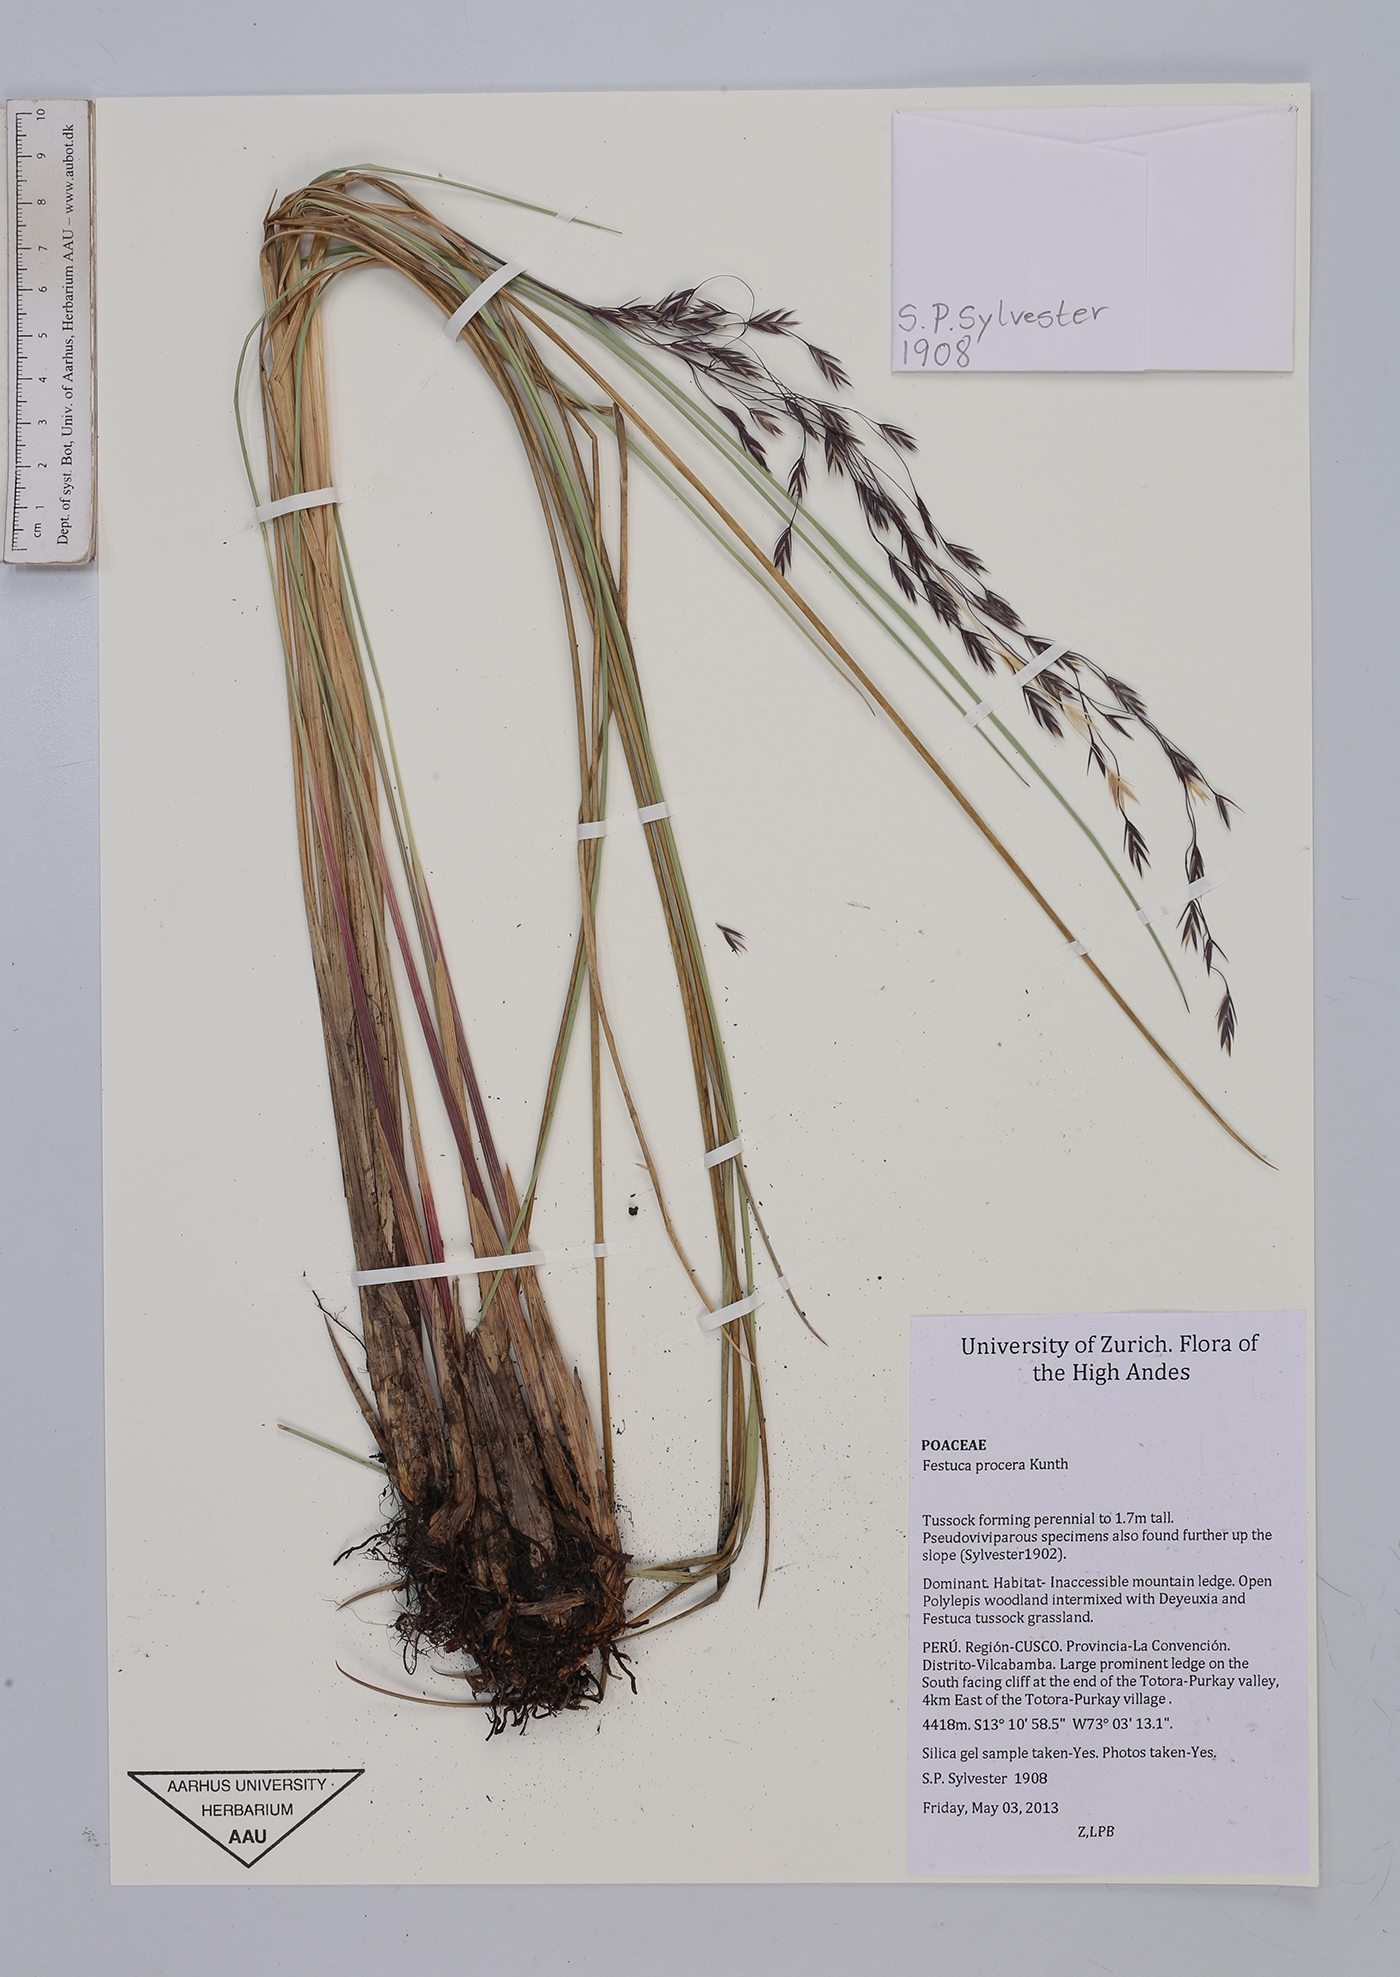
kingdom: Plantae
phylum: Tracheophyta
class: Liliopsida
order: Poales
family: Poaceae
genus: Festuca
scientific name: Festuca procera
